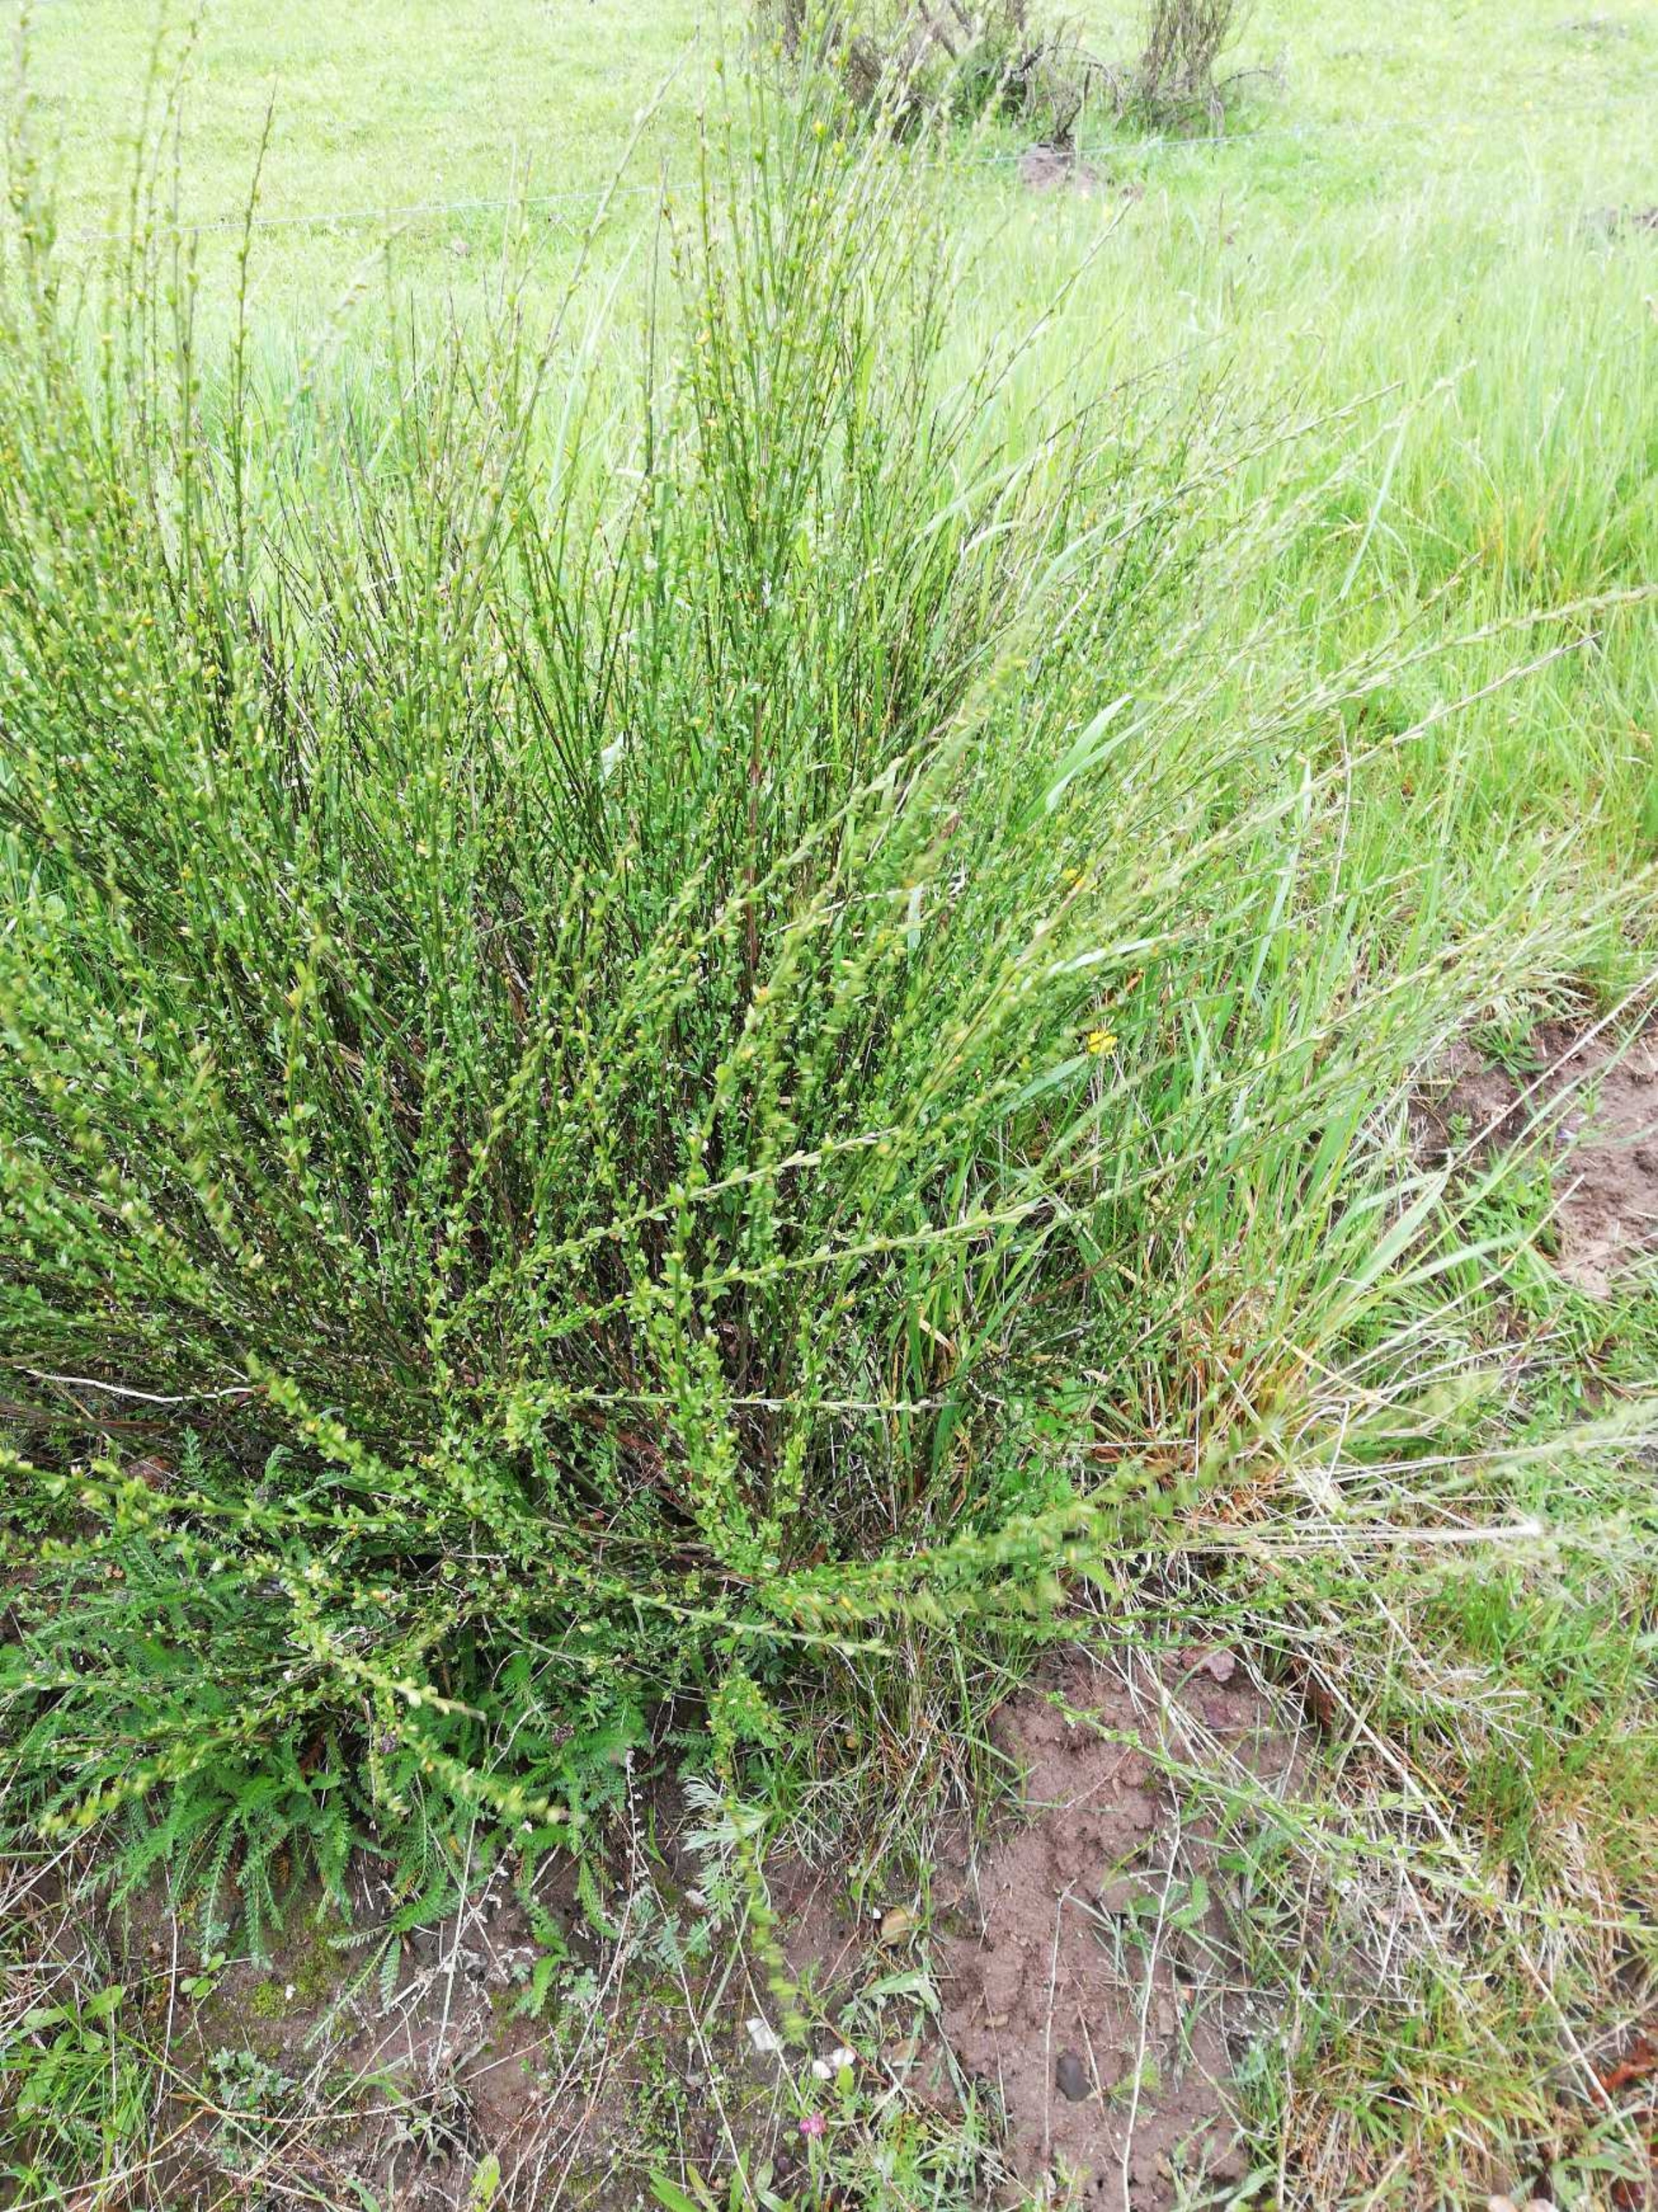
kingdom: Plantae
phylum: Tracheophyta
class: Magnoliopsida
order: Fabales
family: Fabaceae
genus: Cytisus
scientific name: Cytisus scoparius
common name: Almindelig gyvel
